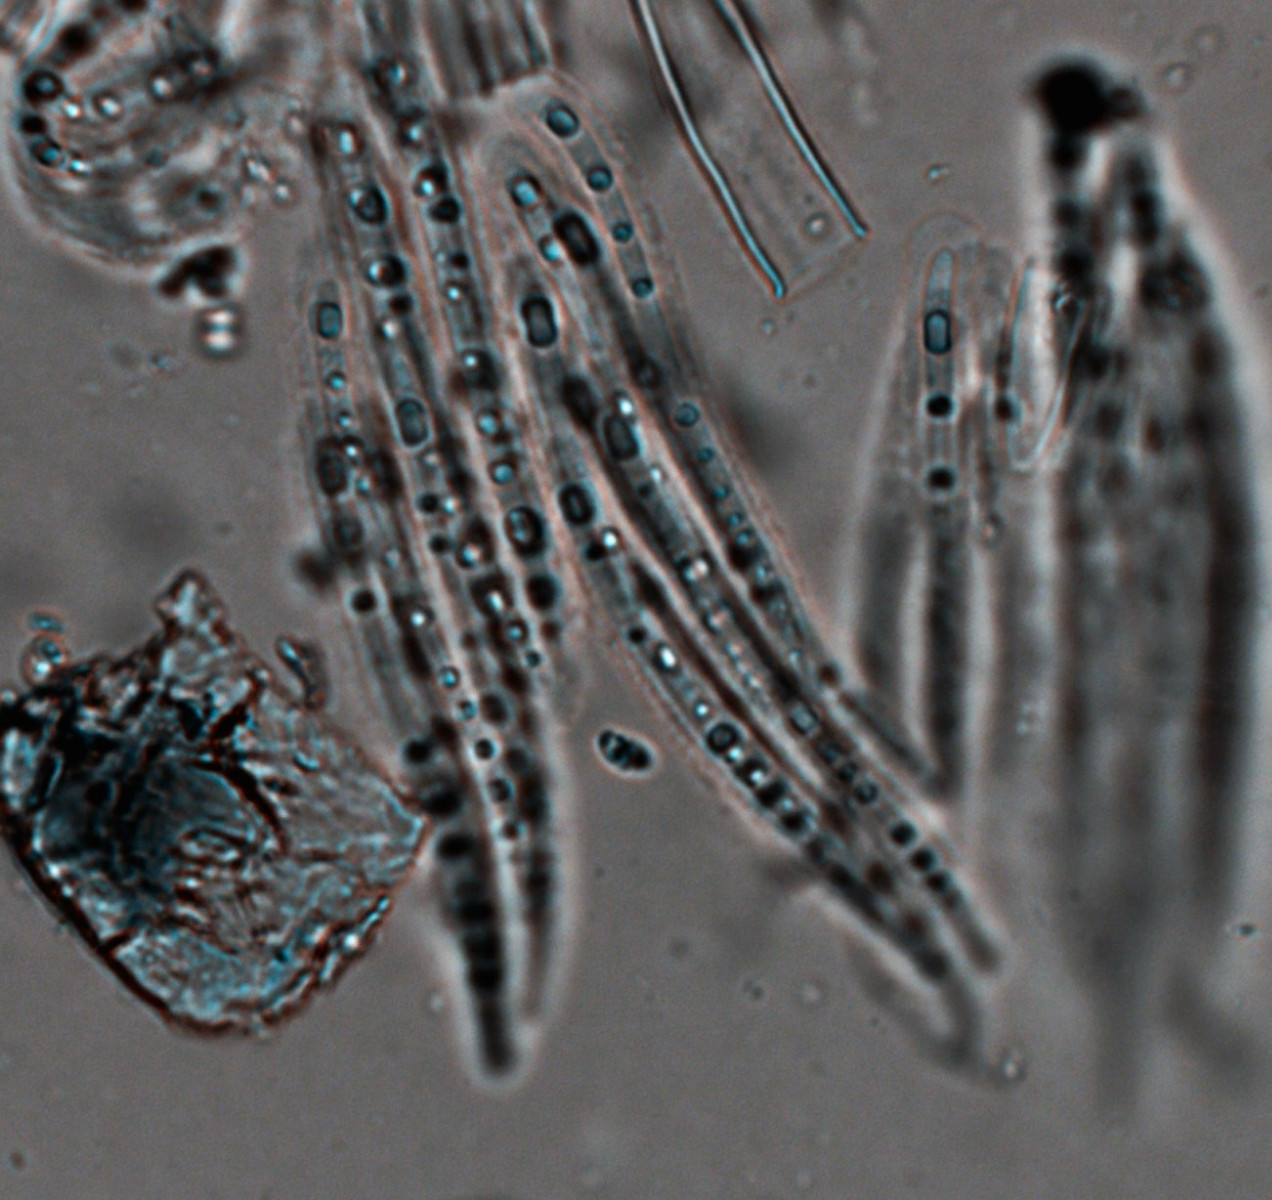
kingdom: Fungi
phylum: Ascomycota
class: Leotiomycetes
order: Rhytismatales
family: Rhytismataceae
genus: Lophodermium
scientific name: Lophodermium juniperinum
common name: ene-fureplet
